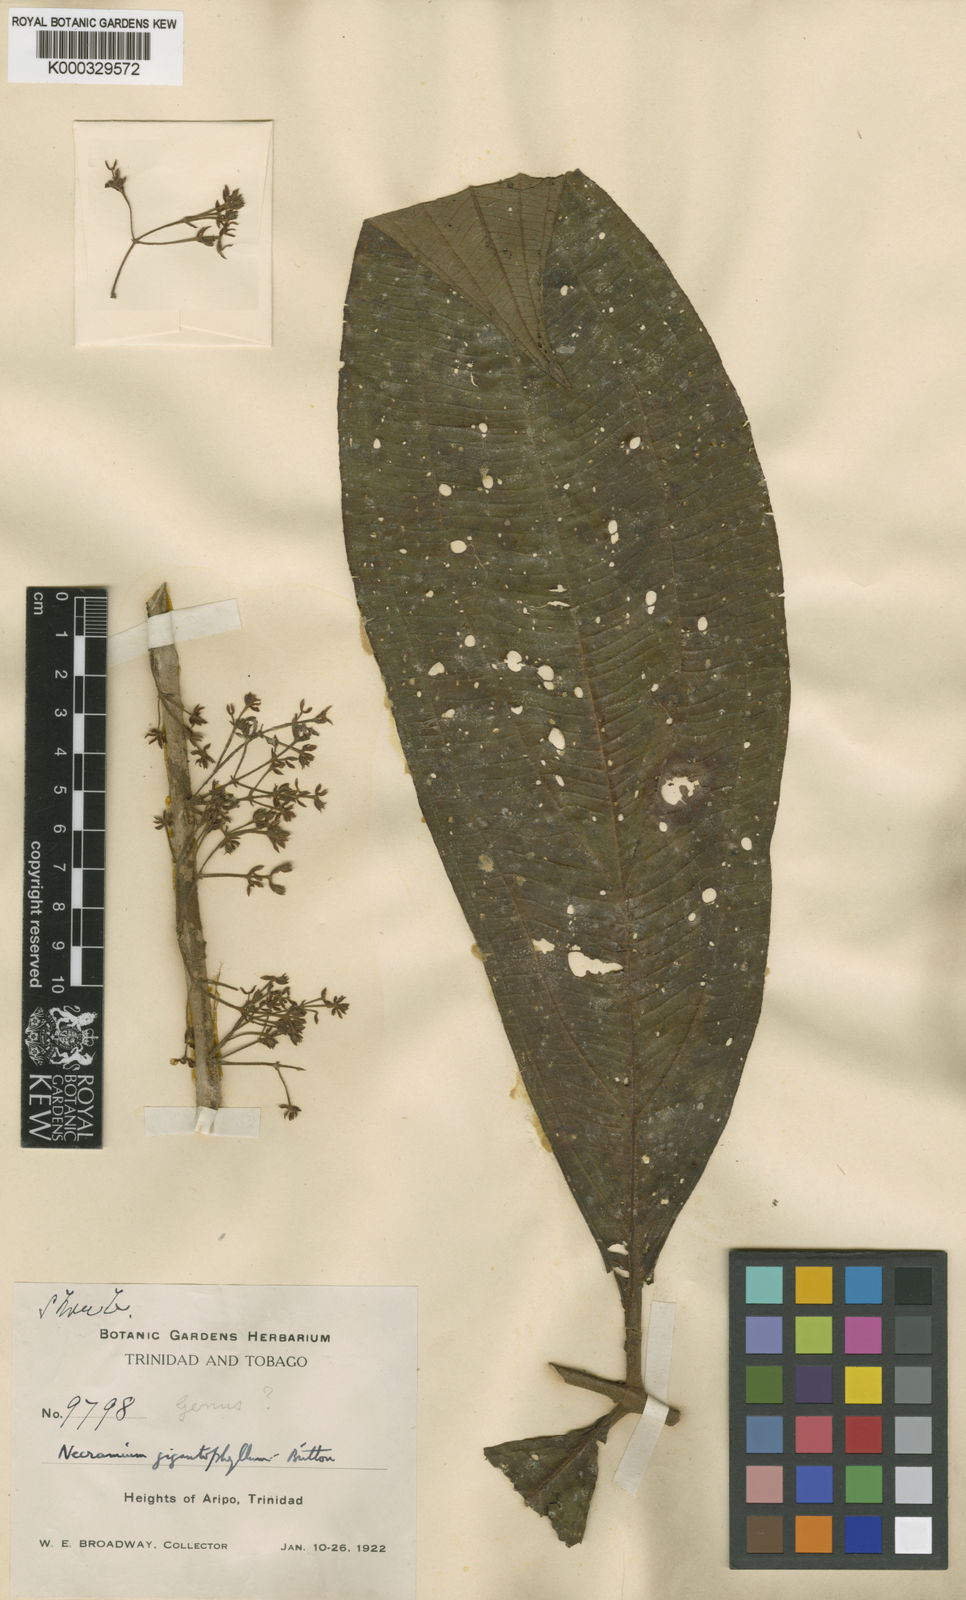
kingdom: Plantae
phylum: Tracheophyta
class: Magnoliopsida
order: Myrtales
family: Melastomataceae
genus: Miconia
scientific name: Miconia gigantophylla
